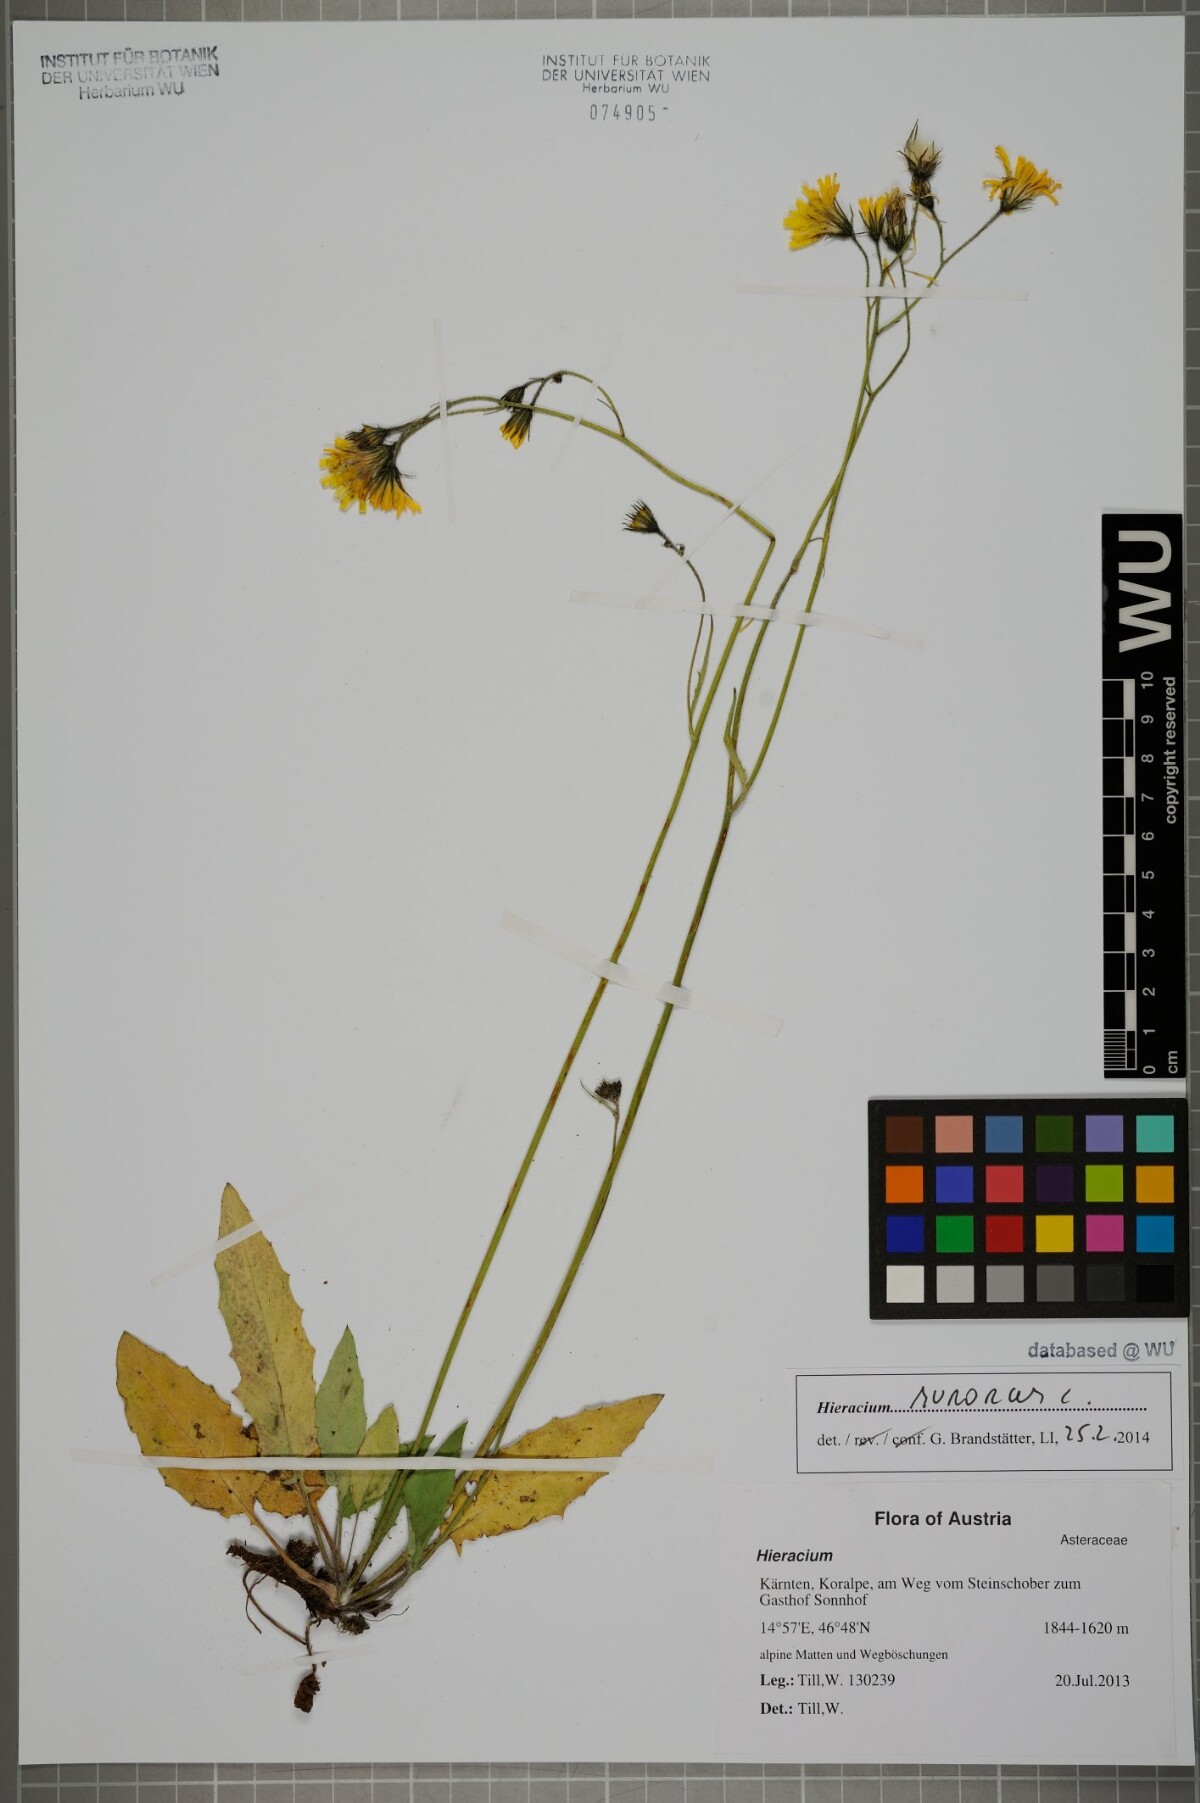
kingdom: Plantae
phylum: Tracheophyta
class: Magnoliopsida
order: Asterales
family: Asteraceae
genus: Hieracium
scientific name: Hieracium murorum
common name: Wall hawkweed
